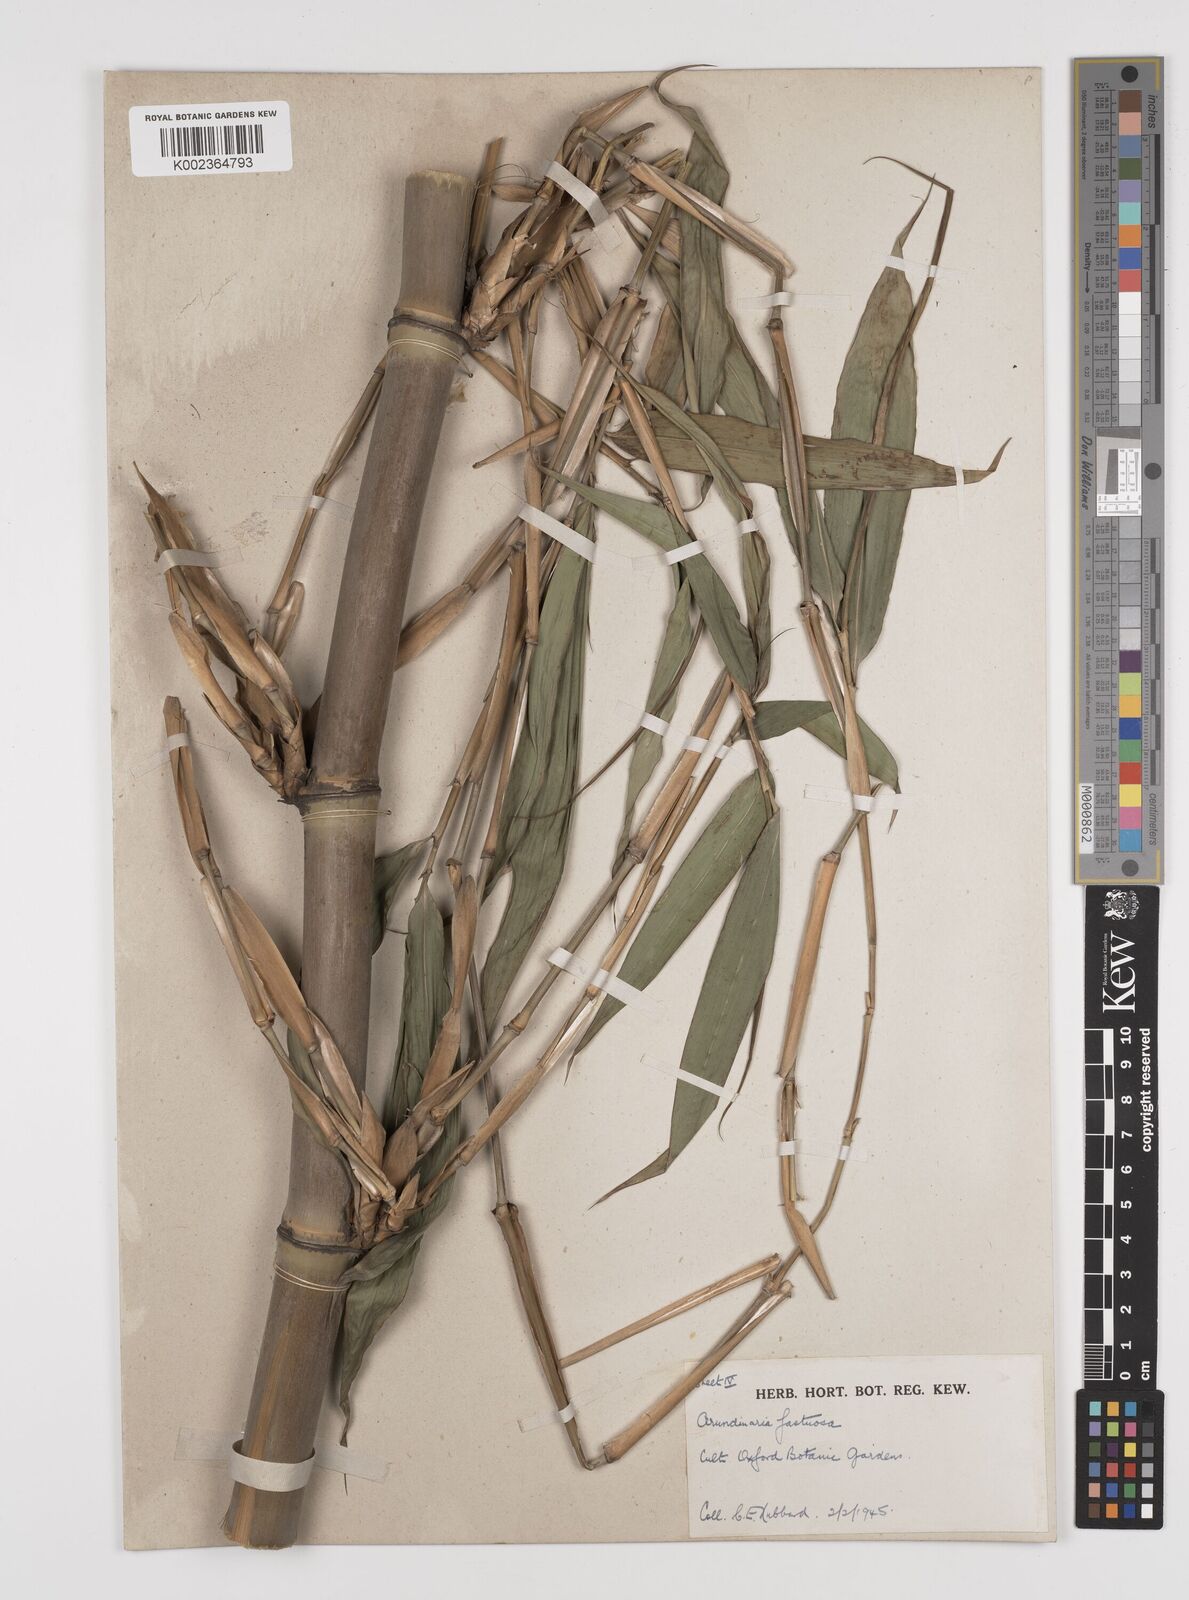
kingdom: Plantae
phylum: Tracheophyta
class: Liliopsida
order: Poales
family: Poaceae
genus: Semiarundinaria
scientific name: Semiarundinaria
